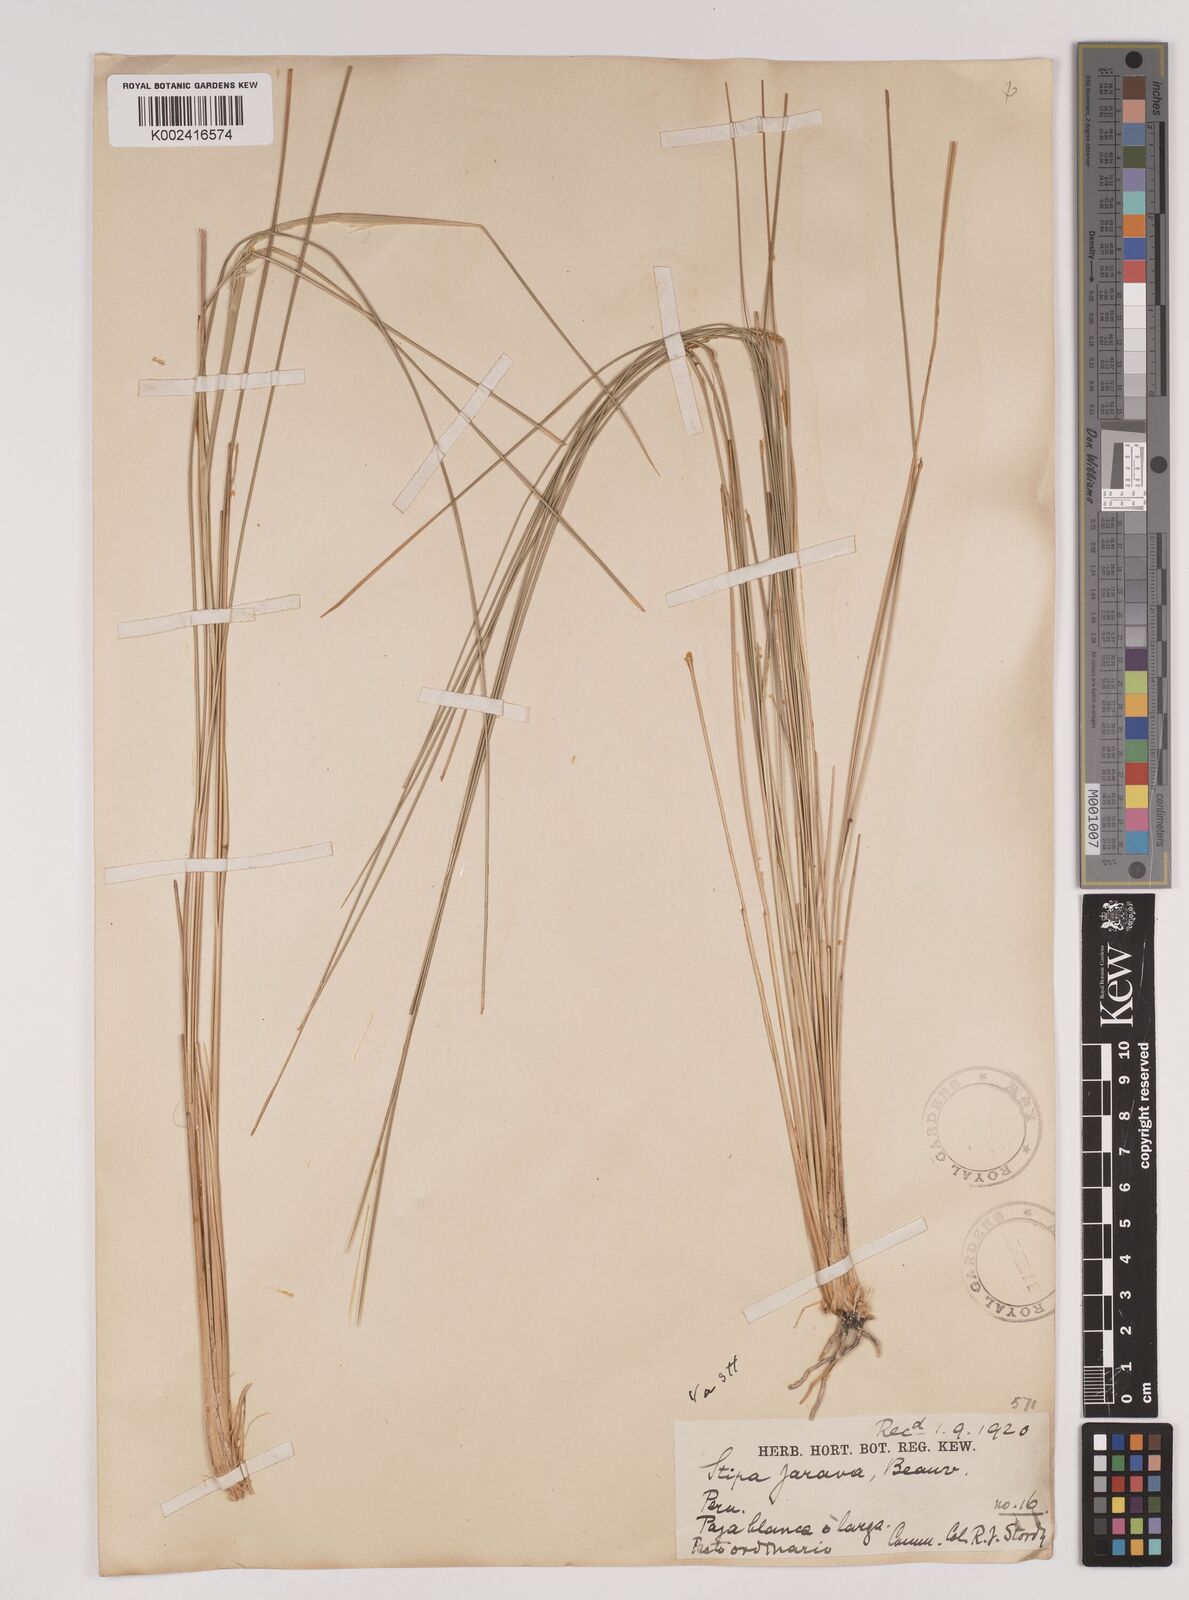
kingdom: Plantae
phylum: Tracheophyta
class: Liliopsida
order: Poales
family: Poaceae
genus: Jarava
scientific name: Jarava leptostachya
